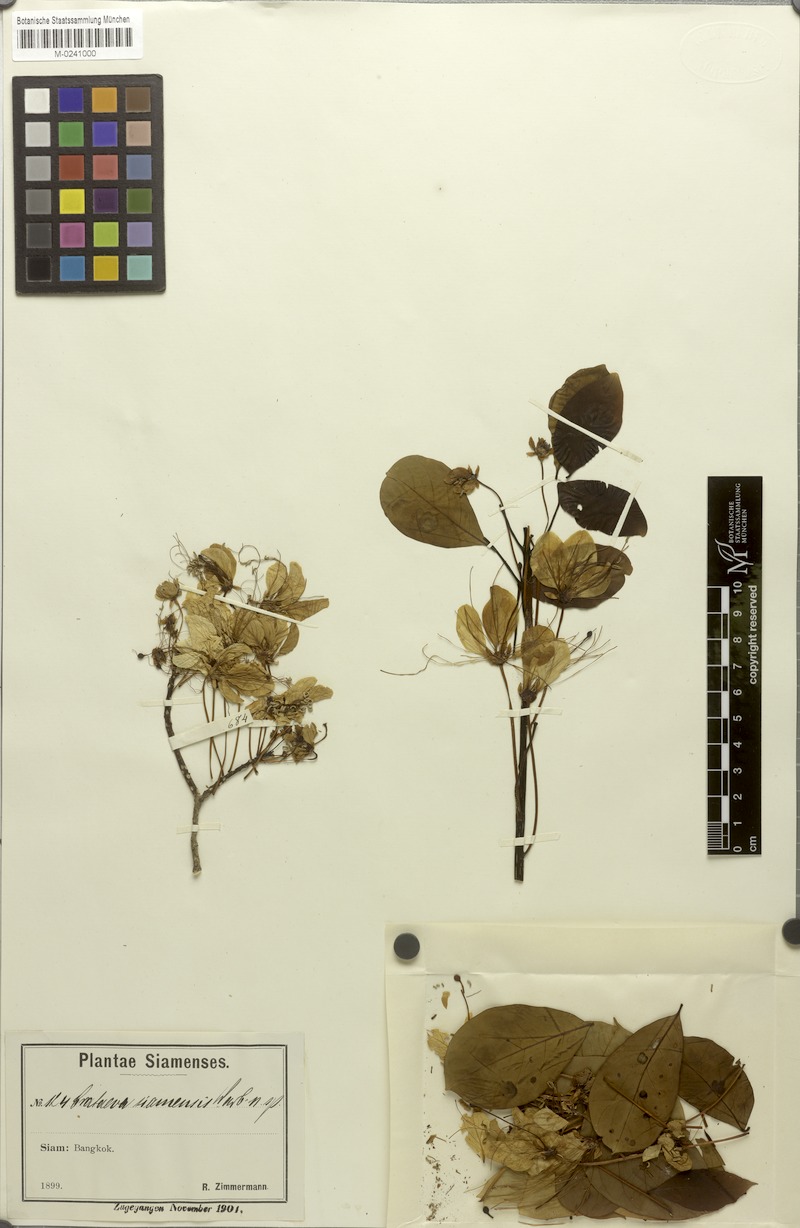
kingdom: Plantae
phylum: Tracheophyta
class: Magnoliopsida
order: Brassicales
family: Capparaceae
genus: Crateva
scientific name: Crateva adansonii
